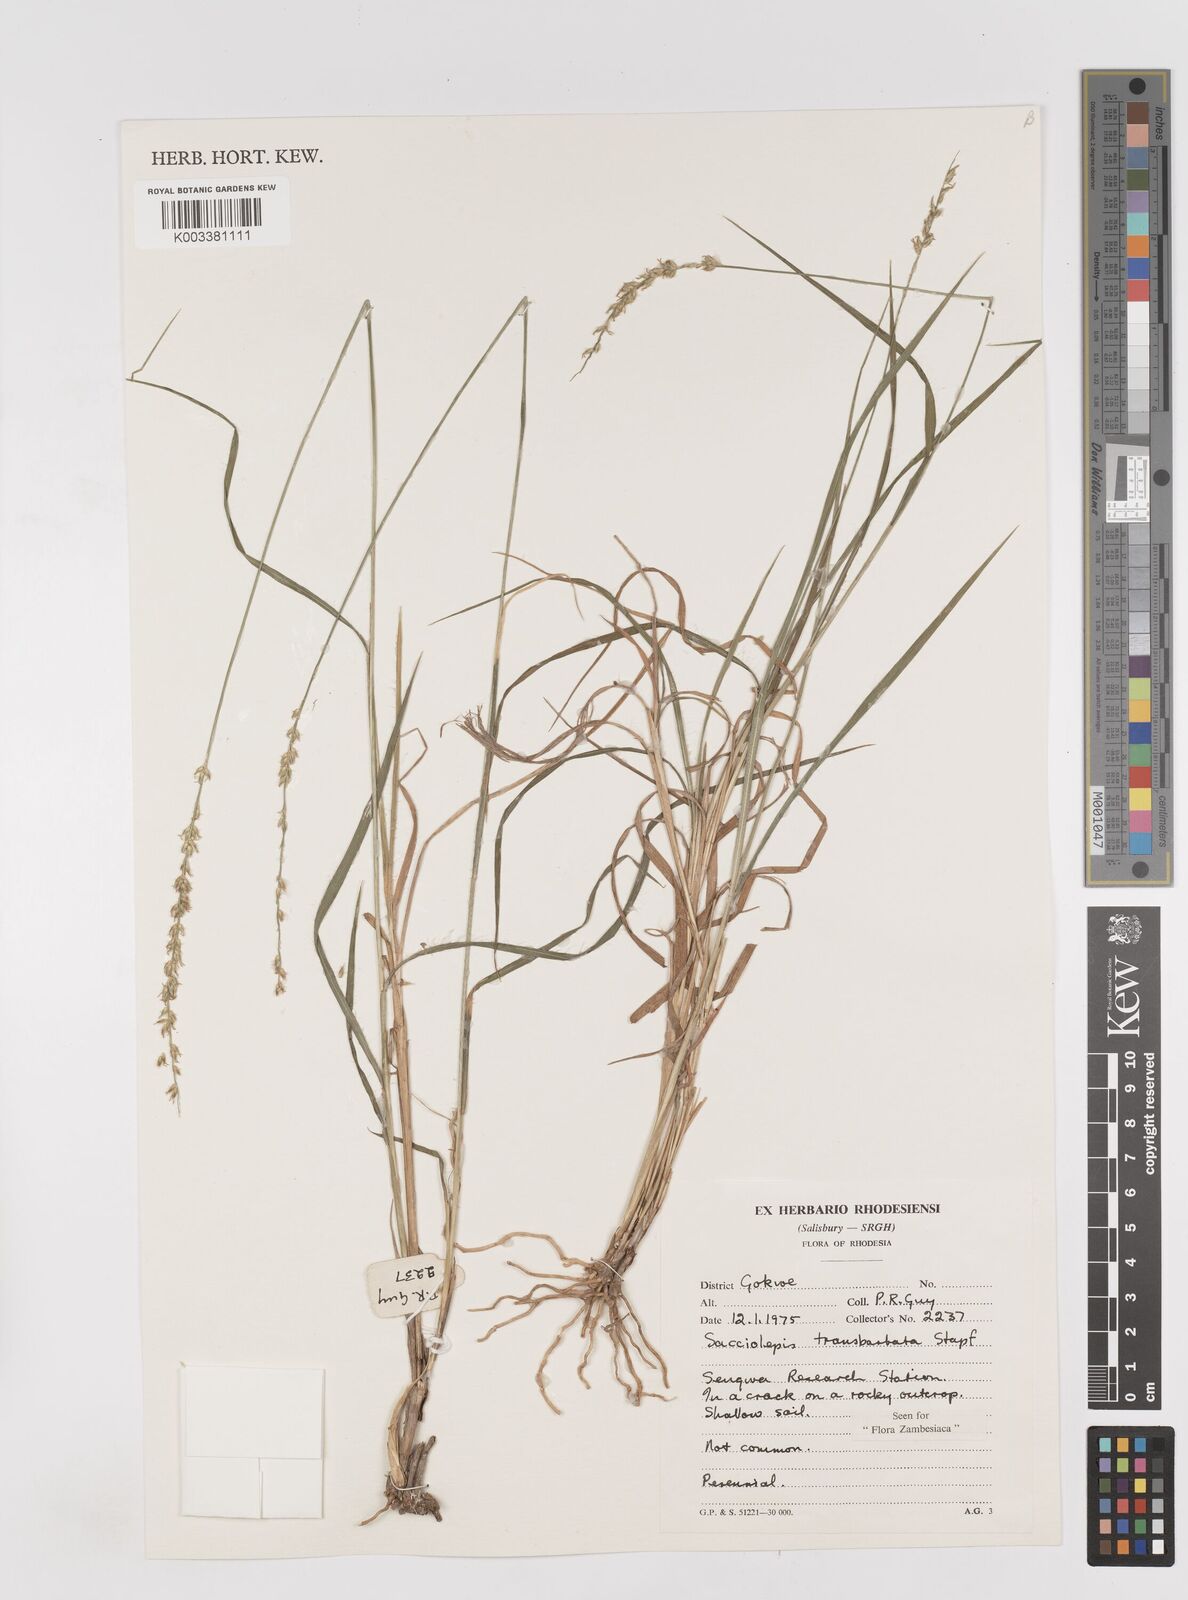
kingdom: Plantae
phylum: Tracheophyta
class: Liliopsida
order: Poales
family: Poaceae
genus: Sacciolepis
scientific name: Sacciolepis transbarbata
